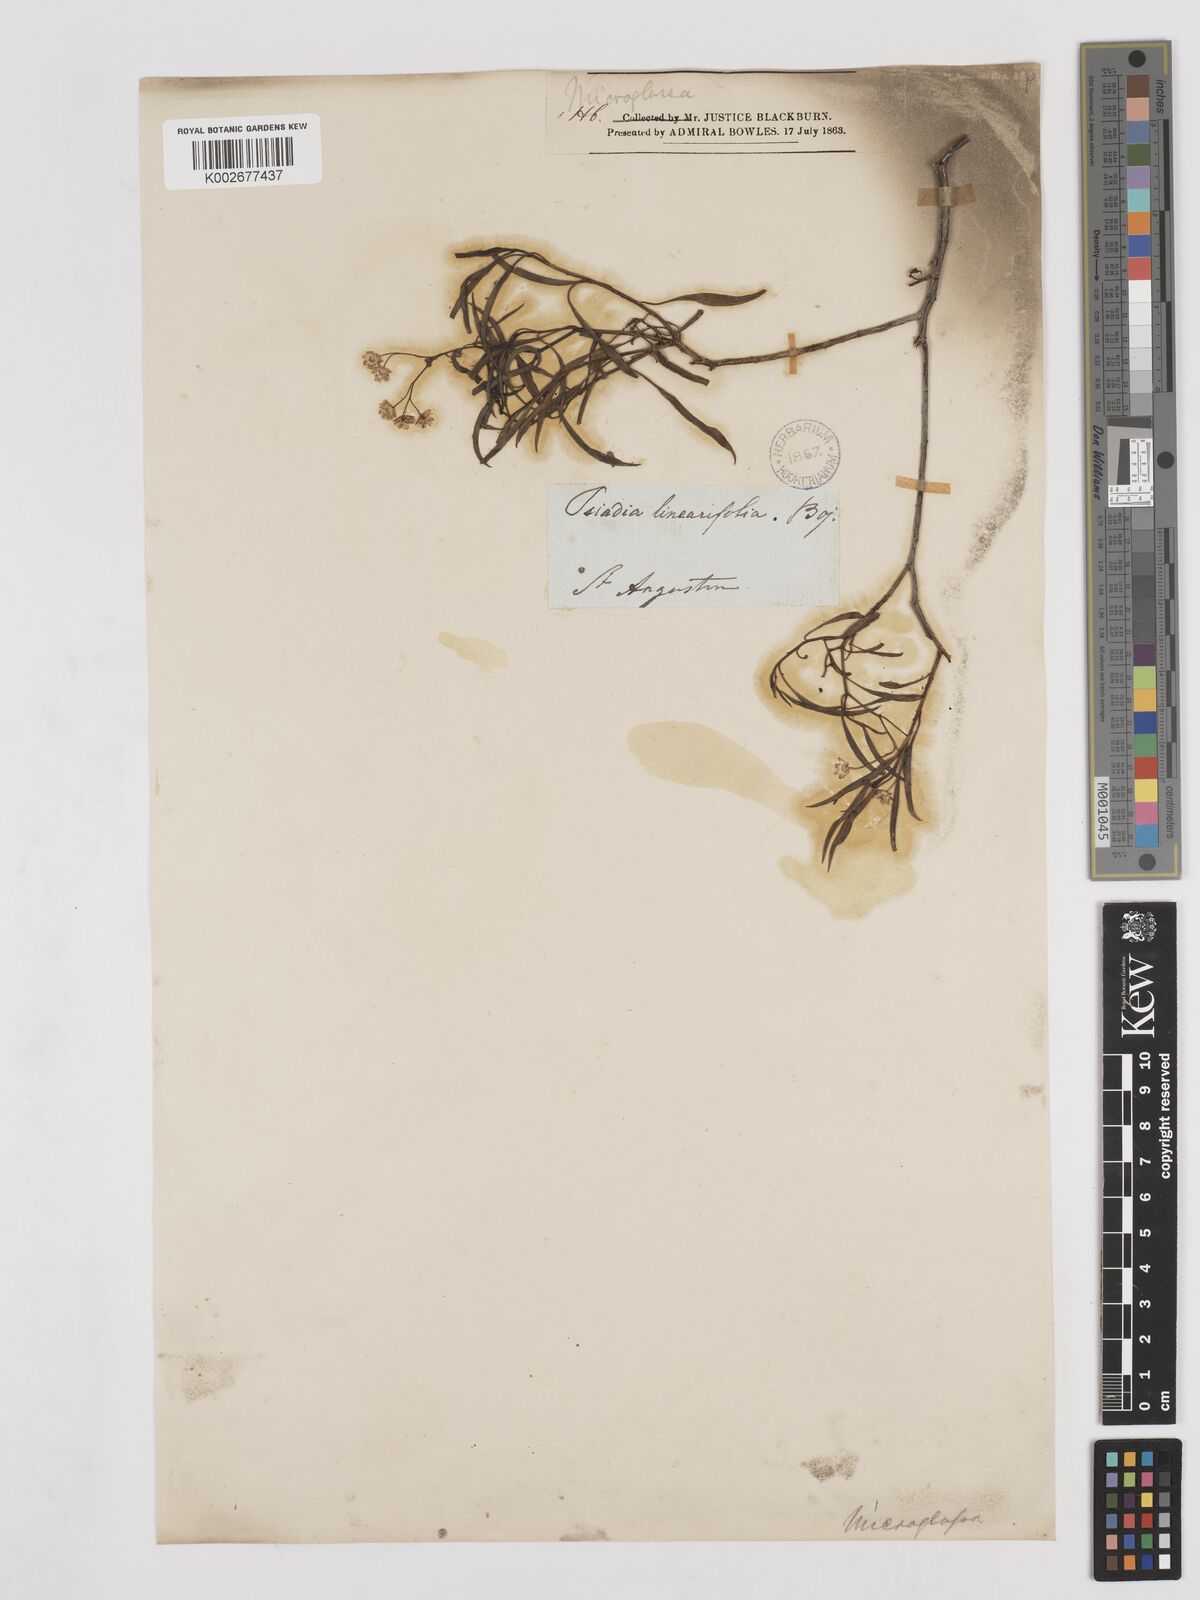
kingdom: Plantae
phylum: Tracheophyta
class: Magnoliopsida
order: Asterales
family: Asteraceae
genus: Psiadia
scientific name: Psiadia linearifolia
